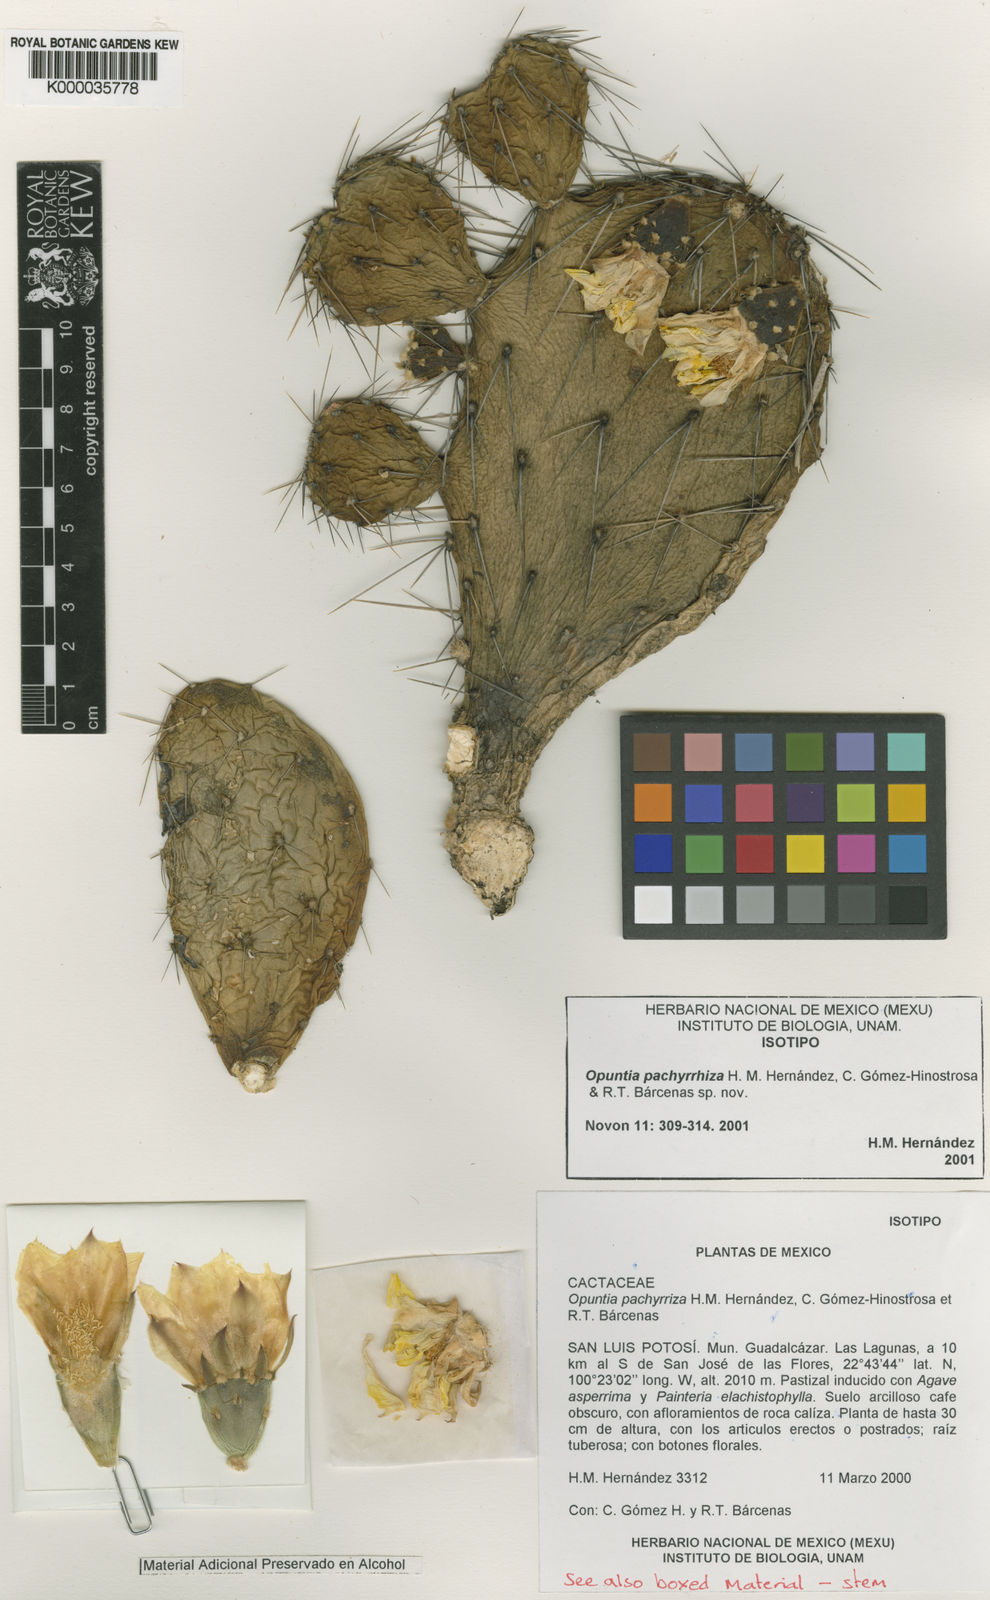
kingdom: Plantae
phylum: Tracheophyta
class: Magnoliopsida
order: Caryophyllales
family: Cactaceae
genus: Opuntia
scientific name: Opuntia
